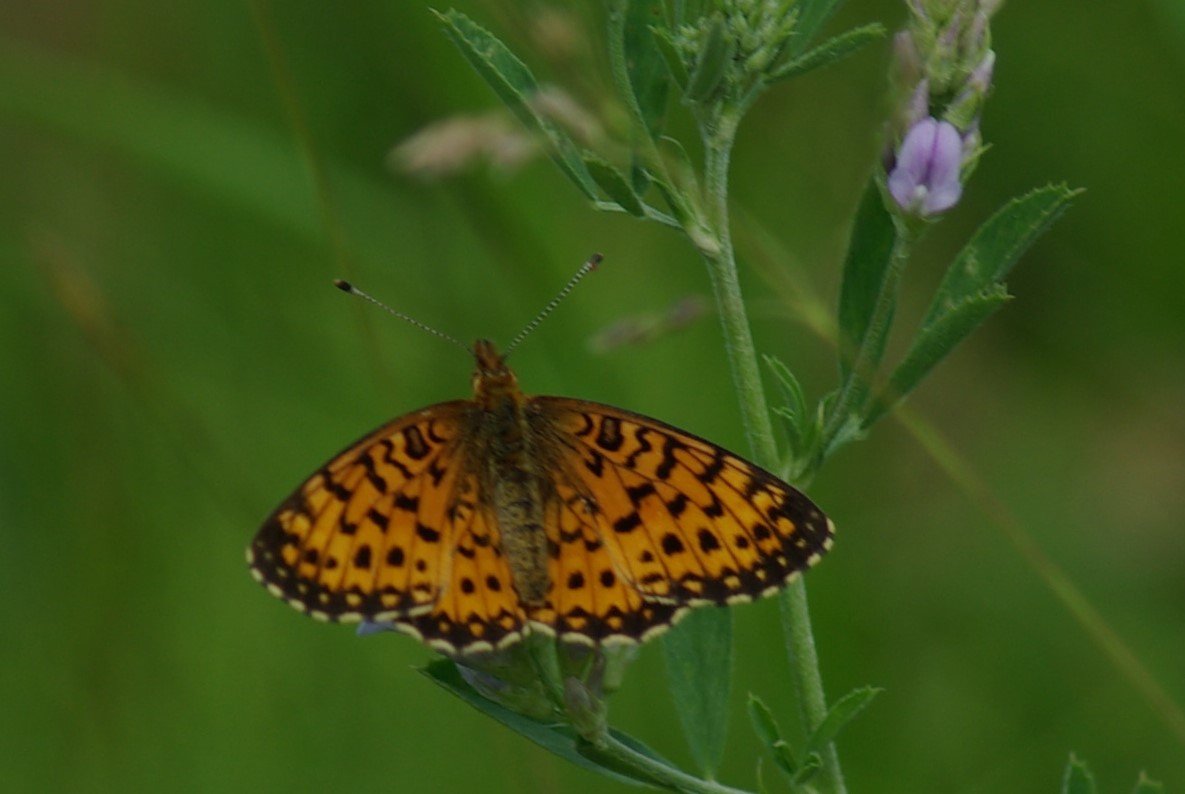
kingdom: Animalia
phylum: Arthropoda
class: Insecta
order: Lepidoptera
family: Nymphalidae
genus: Boloria
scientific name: Boloria selene
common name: Silver-bordered Fritillary
